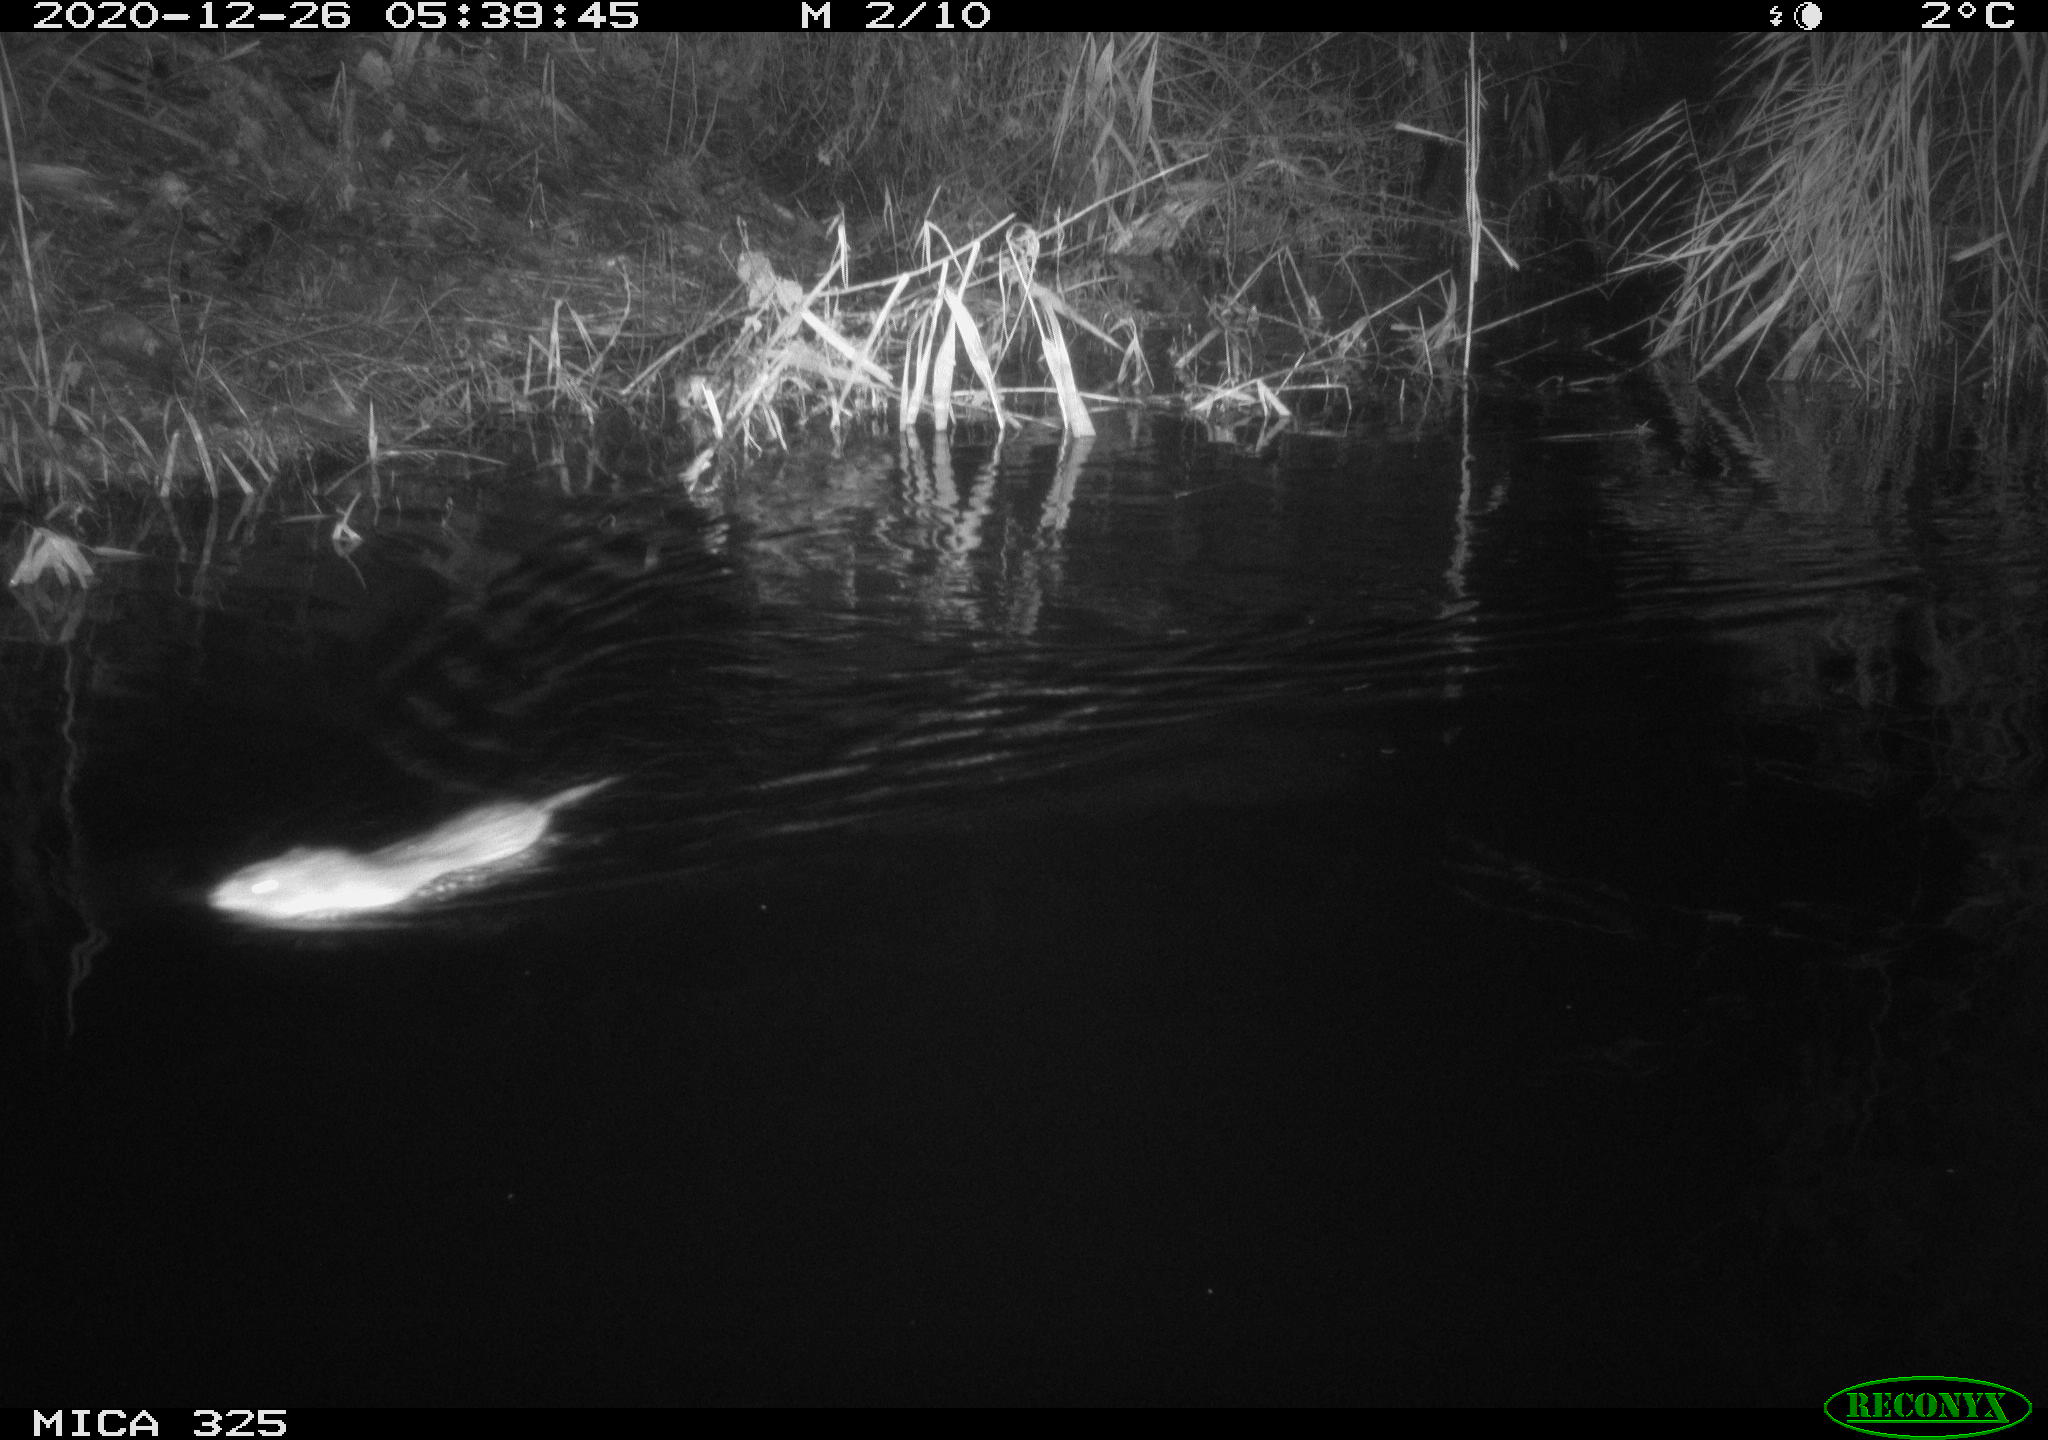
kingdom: Animalia
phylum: Chordata
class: Mammalia
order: Rodentia
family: Cricetidae
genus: Ondatra
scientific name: Ondatra zibethicus
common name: Muskrat
